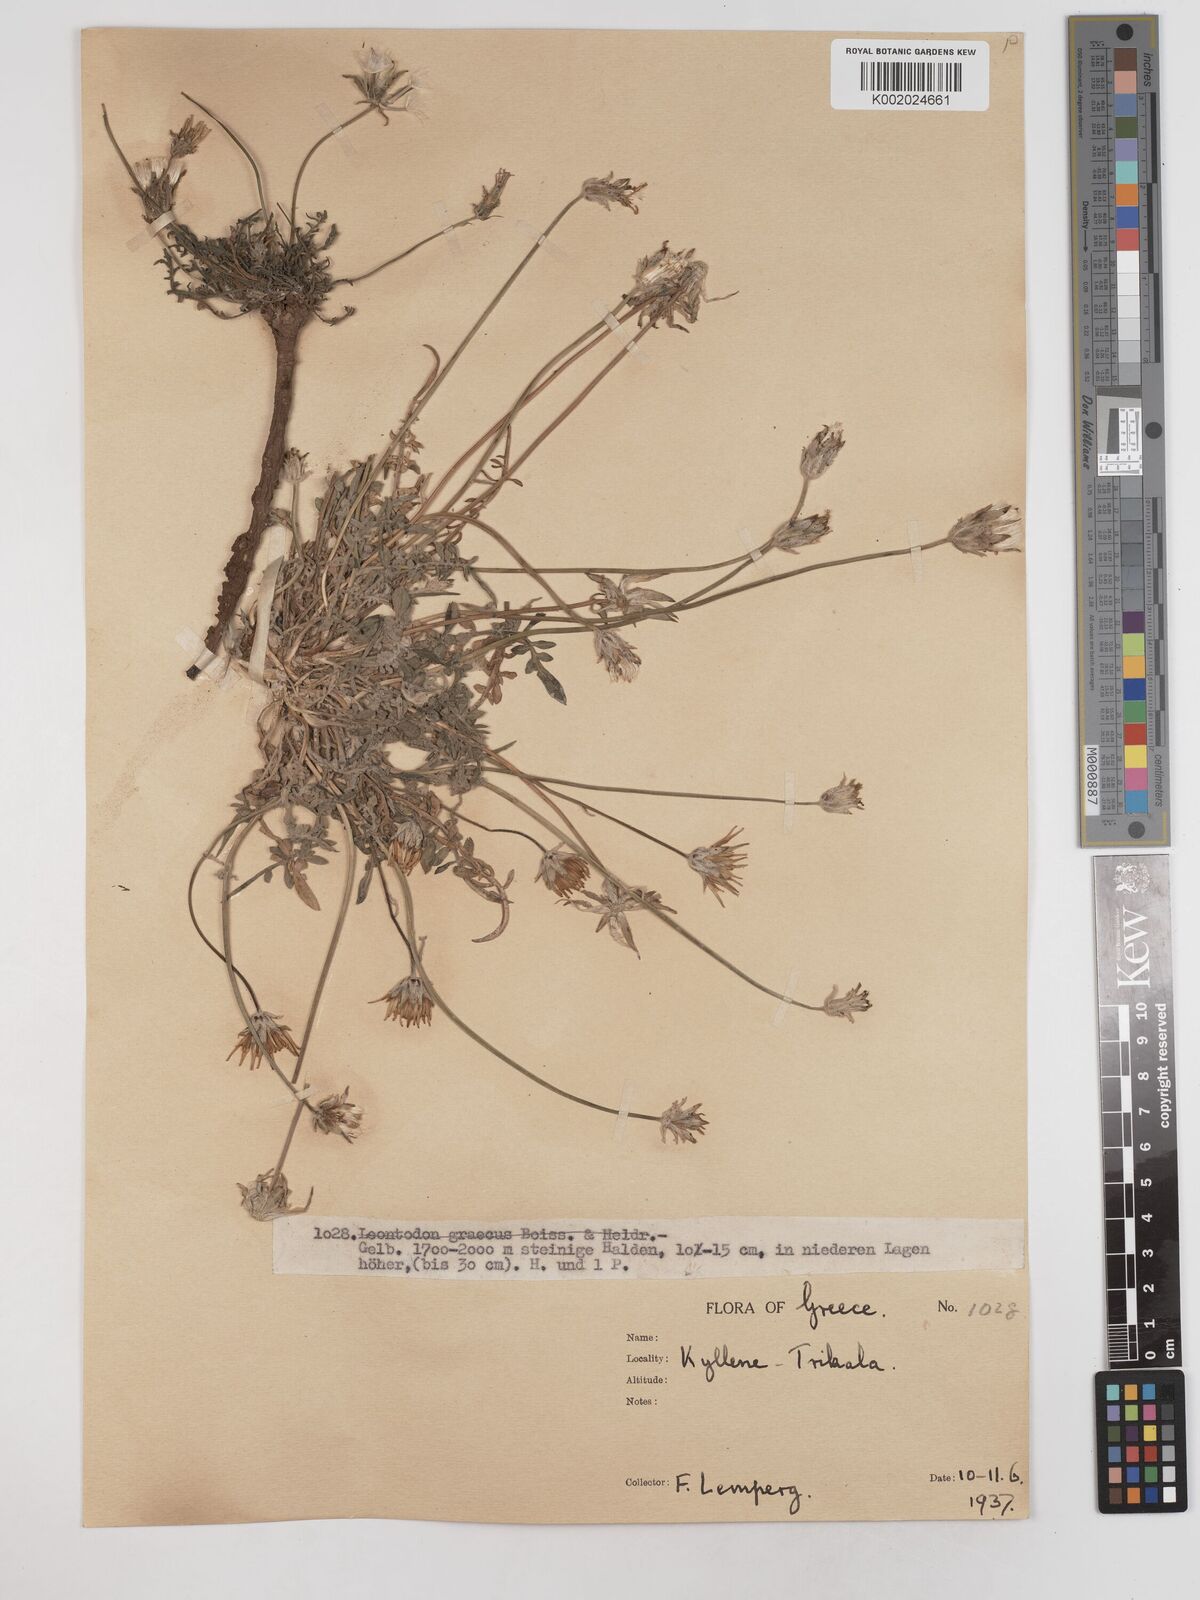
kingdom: Plantae
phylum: Tracheophyta
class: Magnoliopsida
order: Asterales
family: Asteraceae
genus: Scorzonera
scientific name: Scorzonera cana
